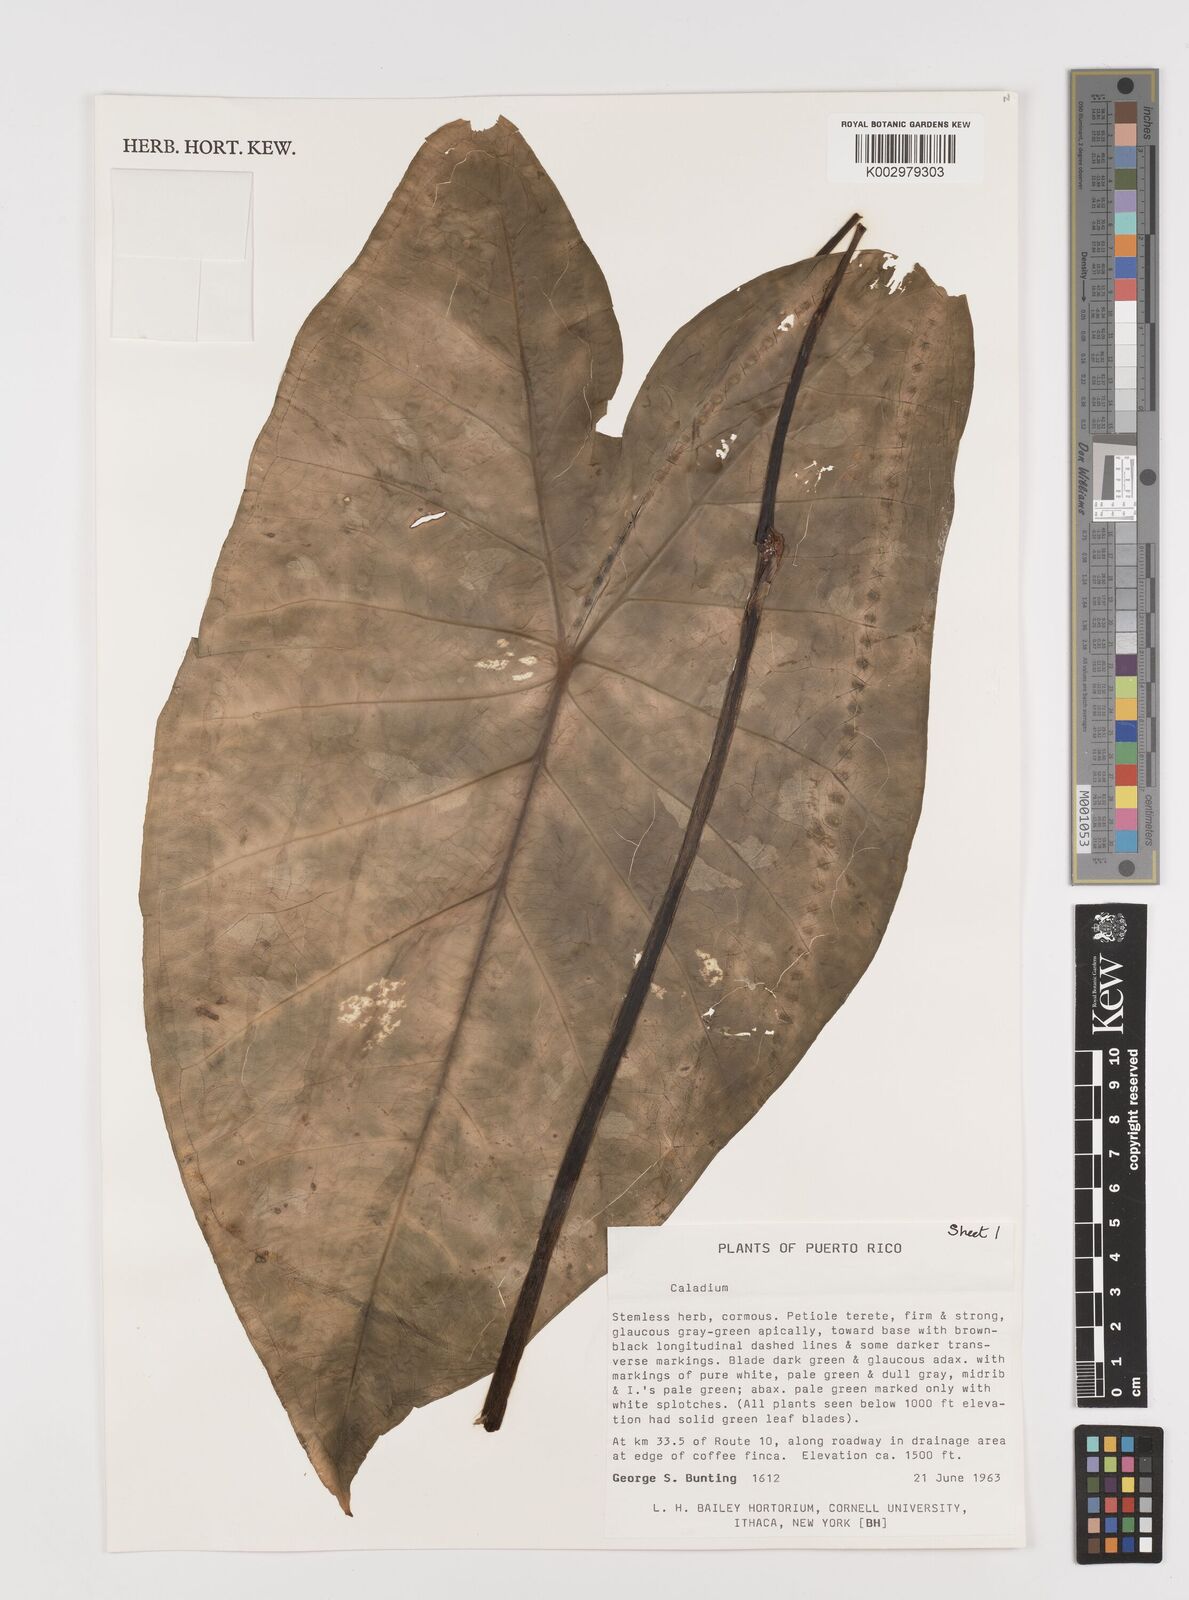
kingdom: Plantae
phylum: Tracheophyta
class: Liliopsida
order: Alismatales
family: Araceae
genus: Caladium
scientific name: Caladium bicolor
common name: Artist's pallet
